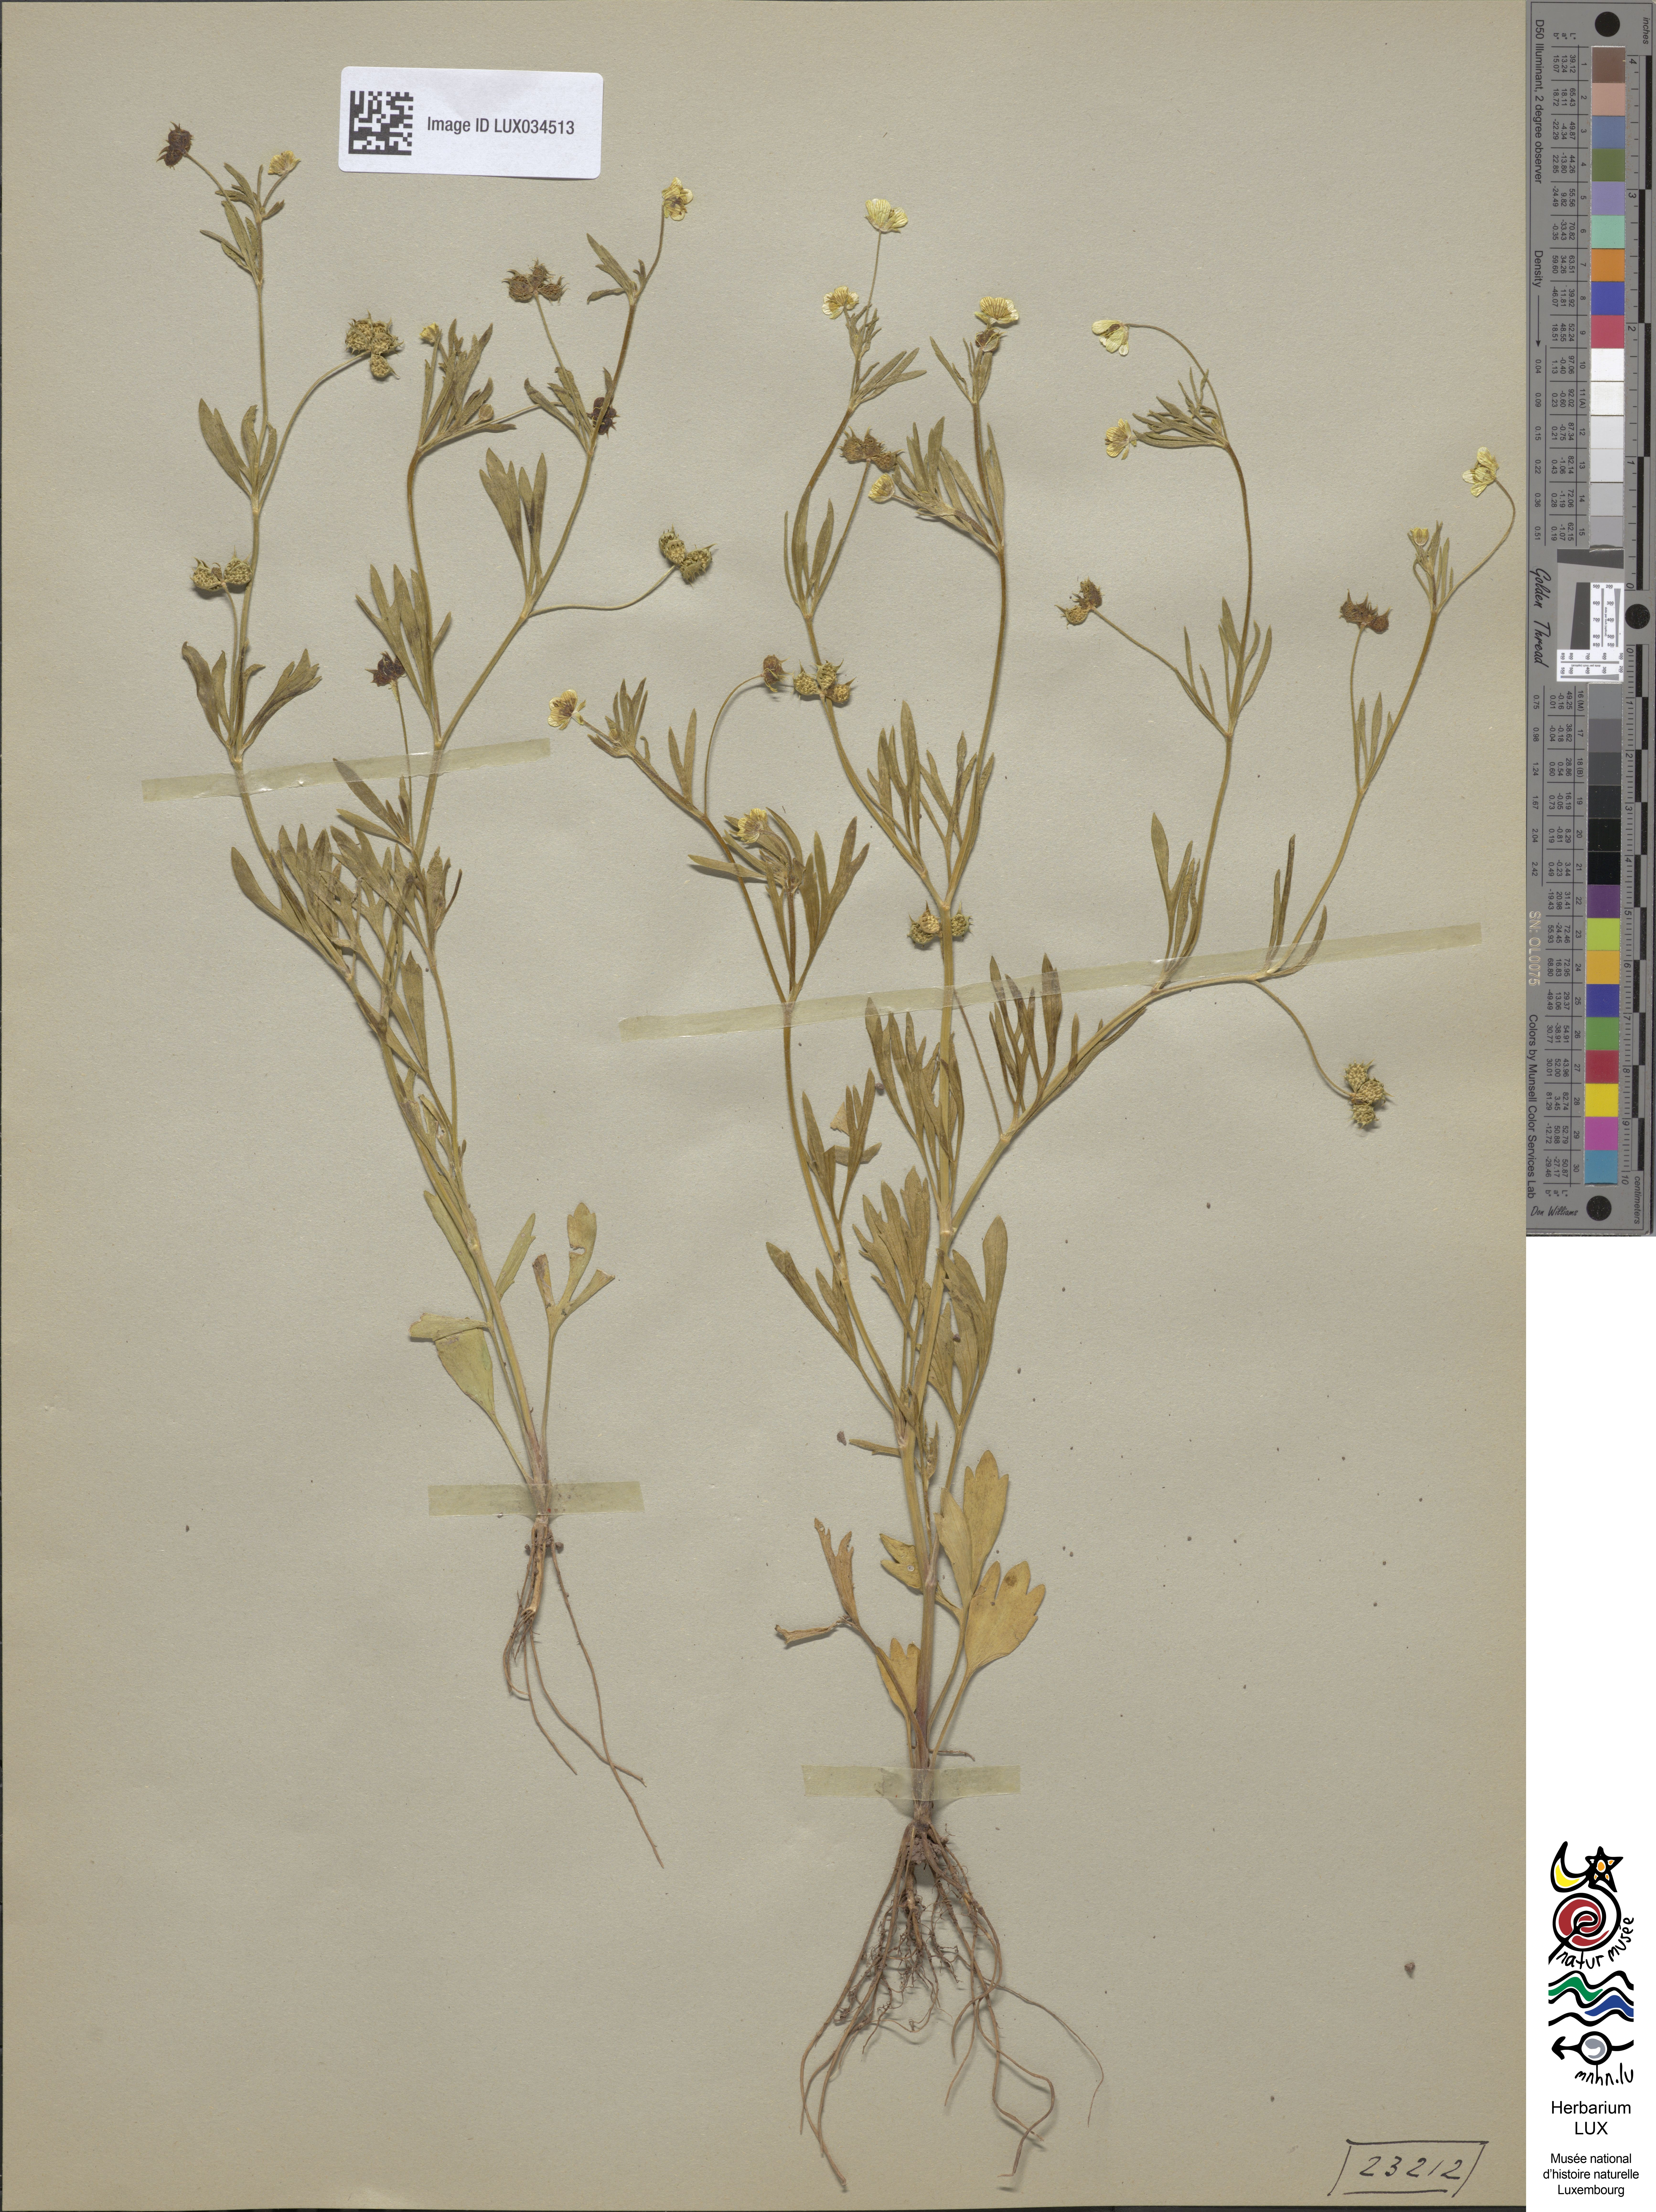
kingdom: Plantae
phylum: Tracheophyta
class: Magnoliopsida
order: Ranunculales
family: Ranunculaceae
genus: Ranunculus
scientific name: Ranunculus arvensis
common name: Corn buttercup
